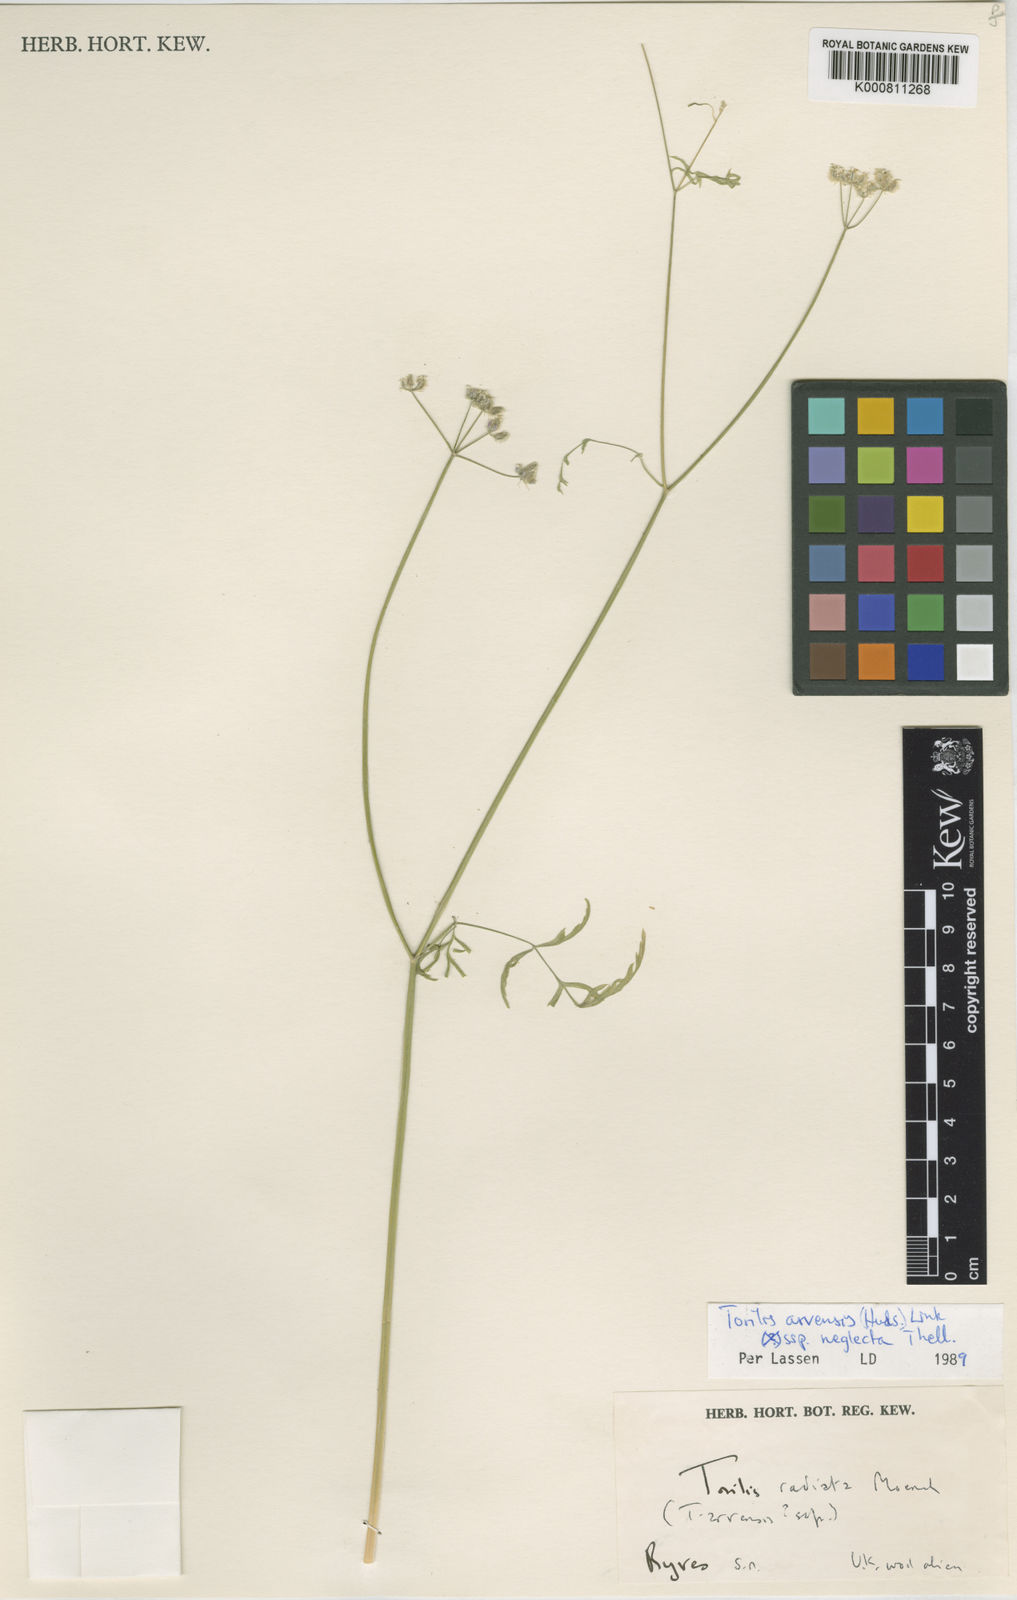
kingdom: Plantae
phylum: Tracheophyta
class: Magnoliopsida
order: Apiales
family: Apiaceae
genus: Torilis
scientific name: Torilis arvensis
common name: Spreading hedge-parsley
